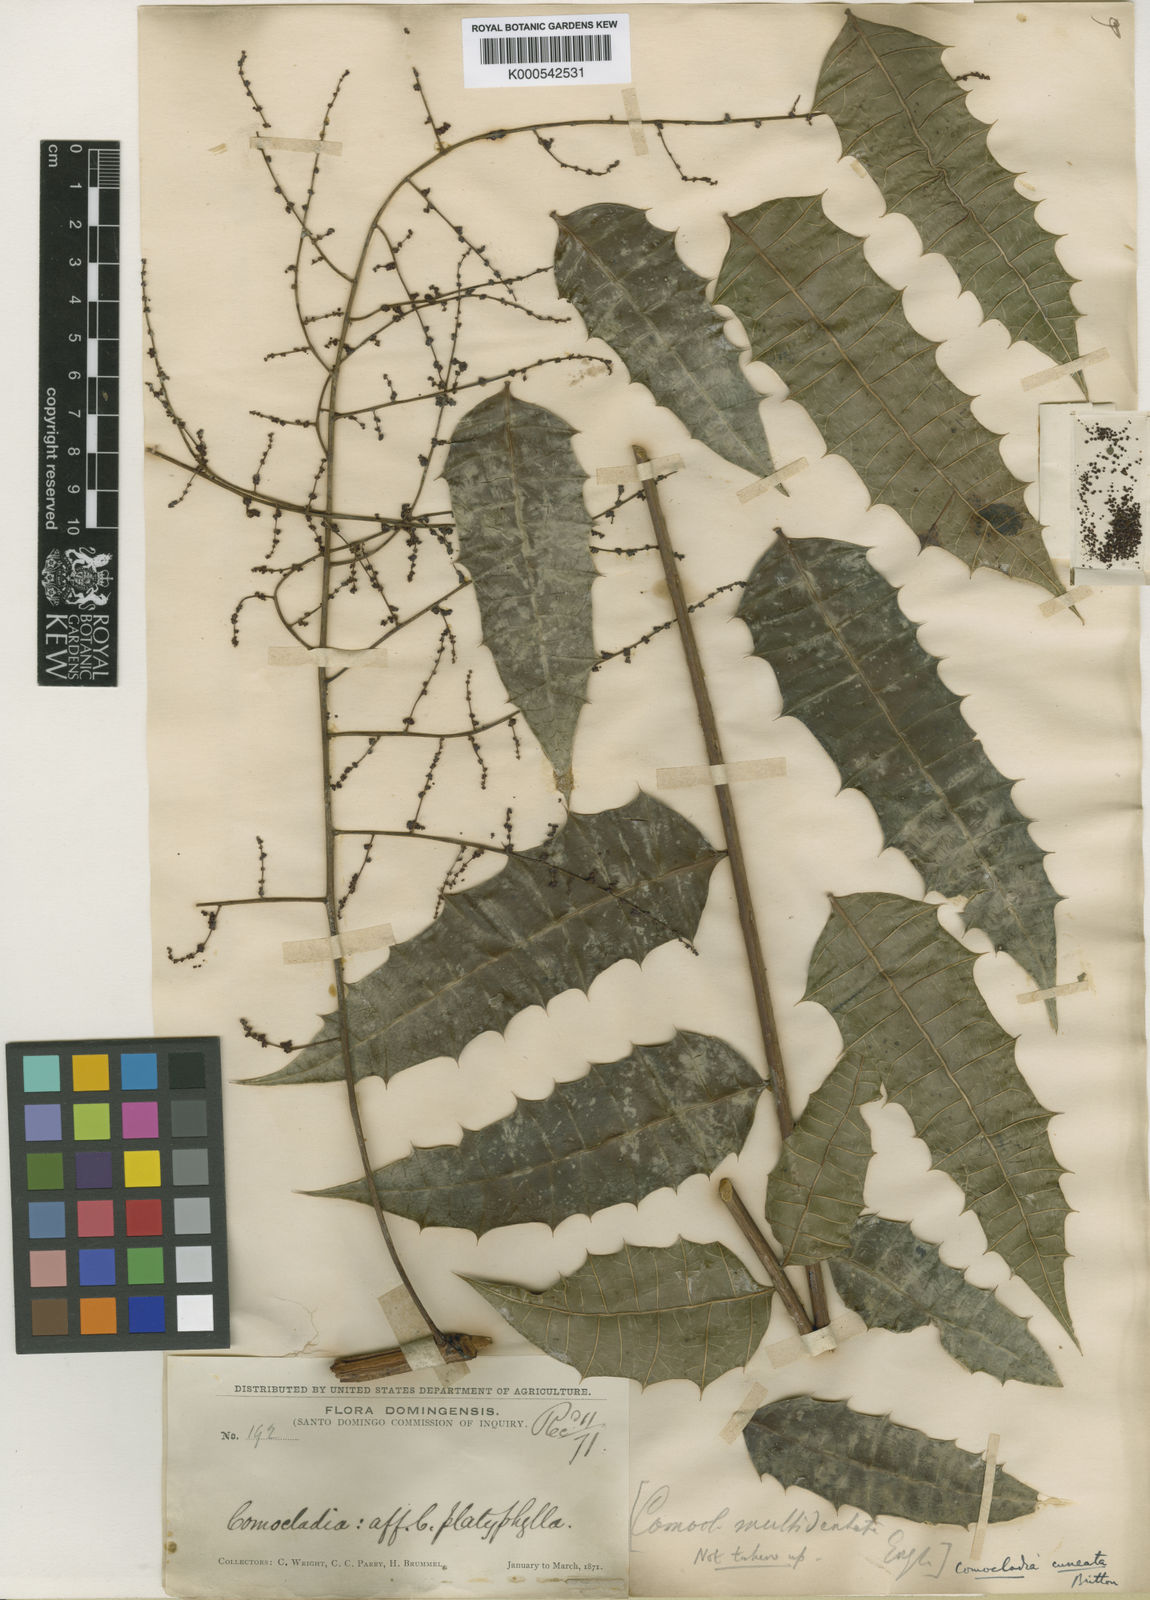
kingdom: Plantae
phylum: Tracheophyta
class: Magnoliopsida
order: Sapindales
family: Anacardiaceae
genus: Comocladia
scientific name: Comocladia cuneata
